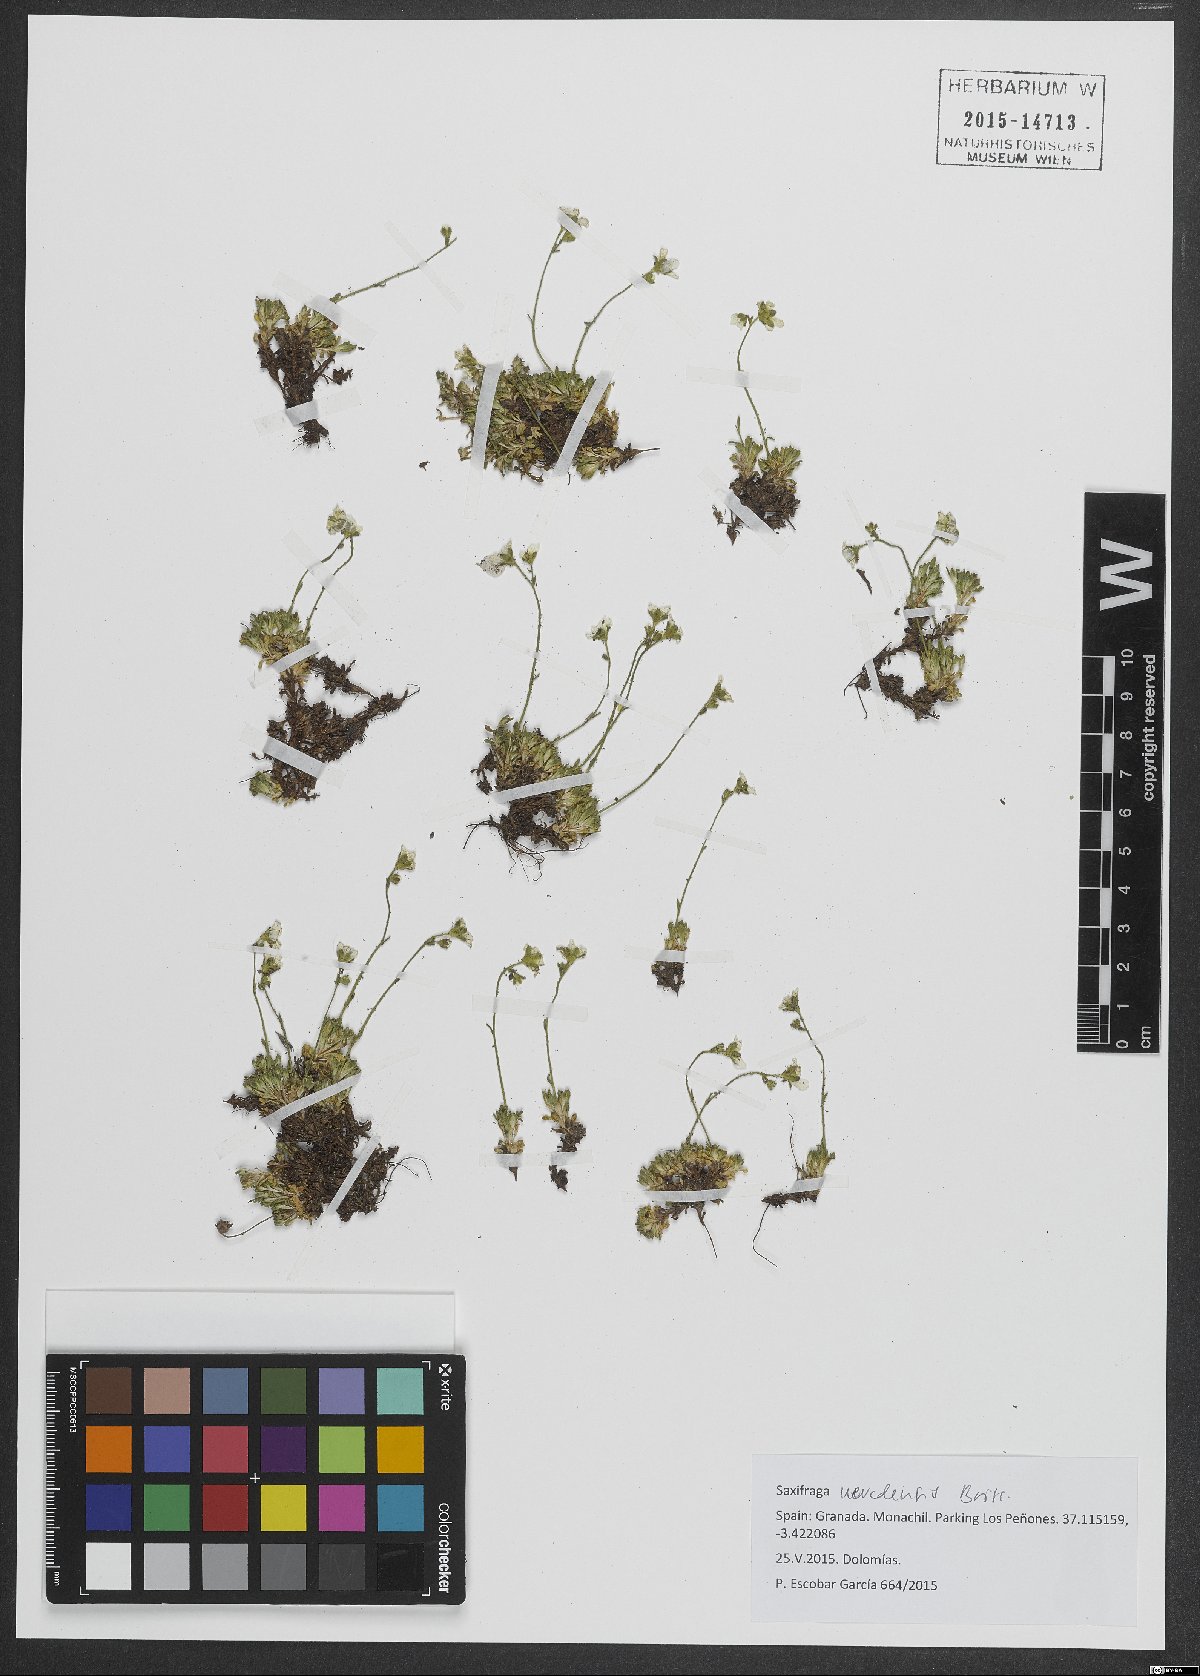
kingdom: Plantae
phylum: Tracheophyta
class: Magnoliopsida
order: Saxifragales
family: Saxifragaceae
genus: Saxifraga
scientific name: Saxifraga nevadensis
